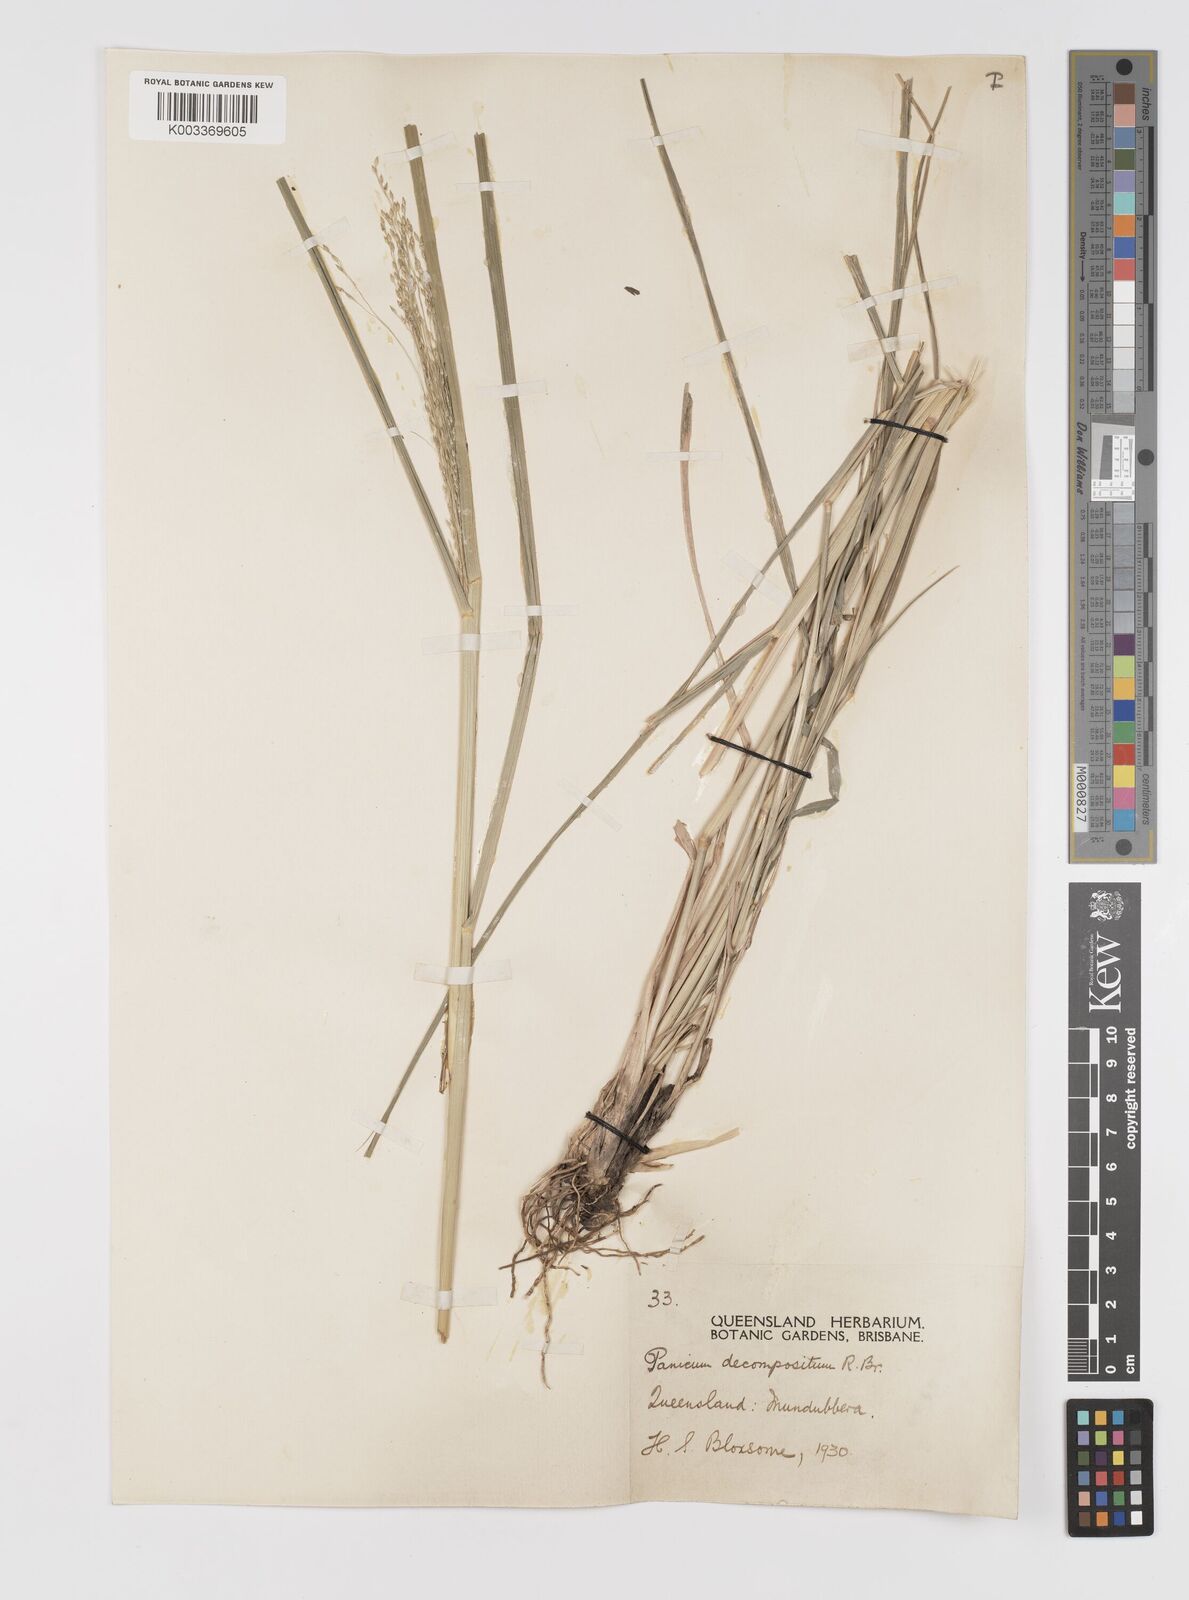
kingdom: Plantae
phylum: Tracheophyta
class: Liliopsida
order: Poales
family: Poaceae
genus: Panicum
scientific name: Panicum decompositum
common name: Australian millet
